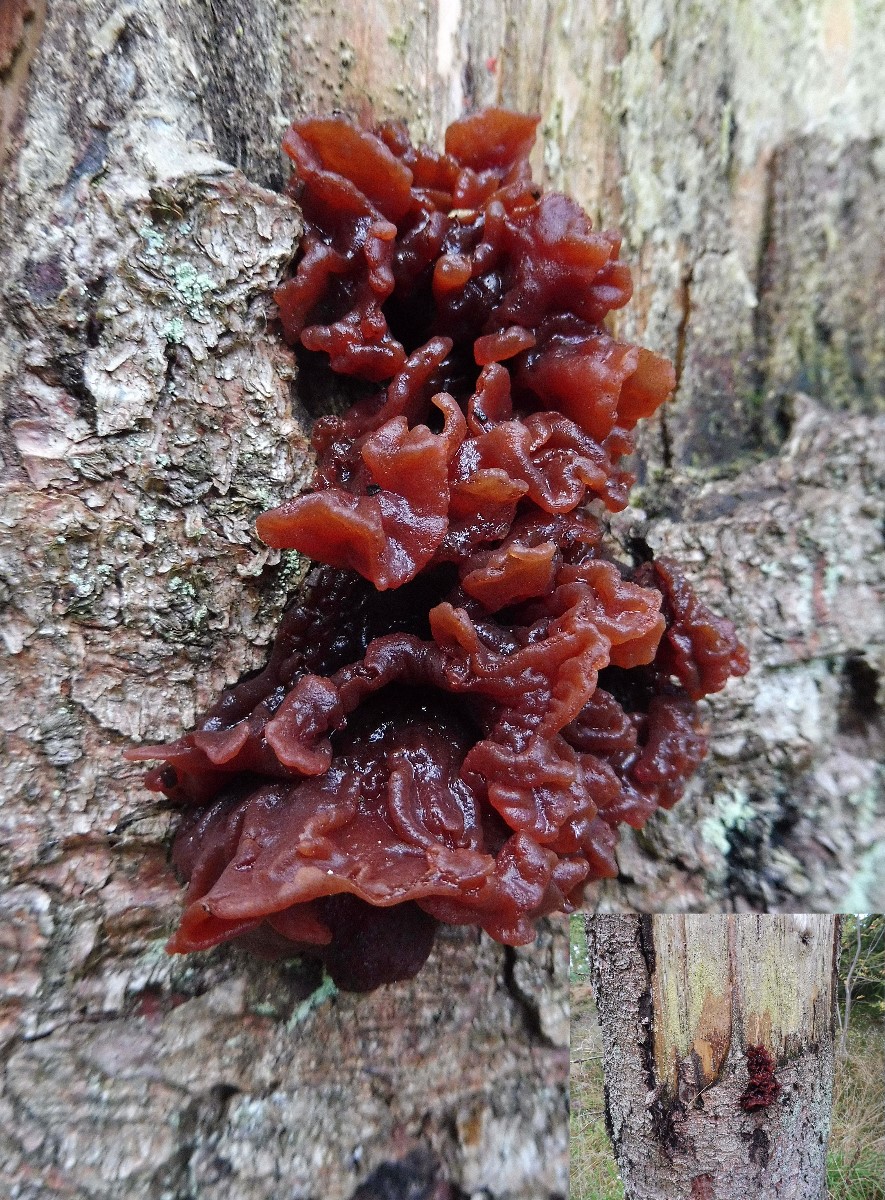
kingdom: Fungi
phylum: Basidiomycota
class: Tremellomycetes
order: Tremellales
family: Tremellaceae
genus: Phaeotremella
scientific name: Phaeotremella foliacea
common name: brun bævresvamp
